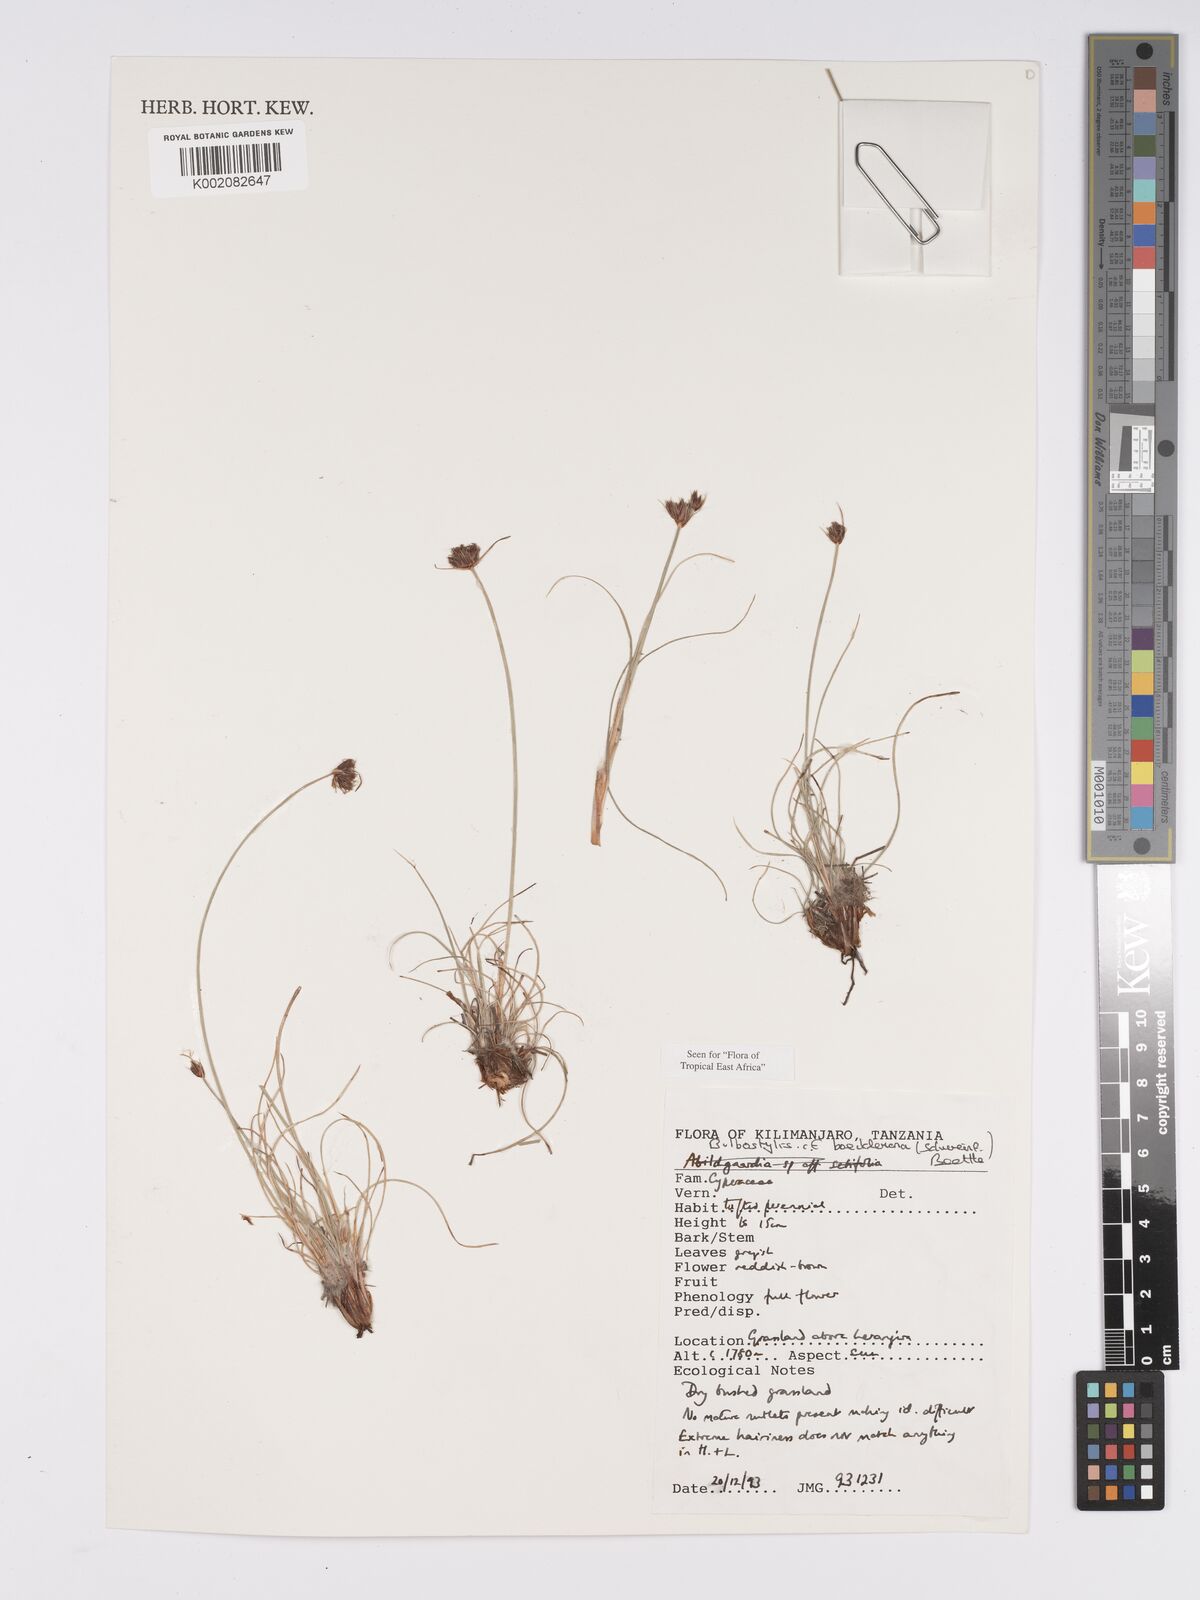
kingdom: Plantae
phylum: Tracheophyta
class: Liliopsida
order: Poales
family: Cyperaceae
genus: Bulbostylis
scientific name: Bulbostylis boeckeleriana
